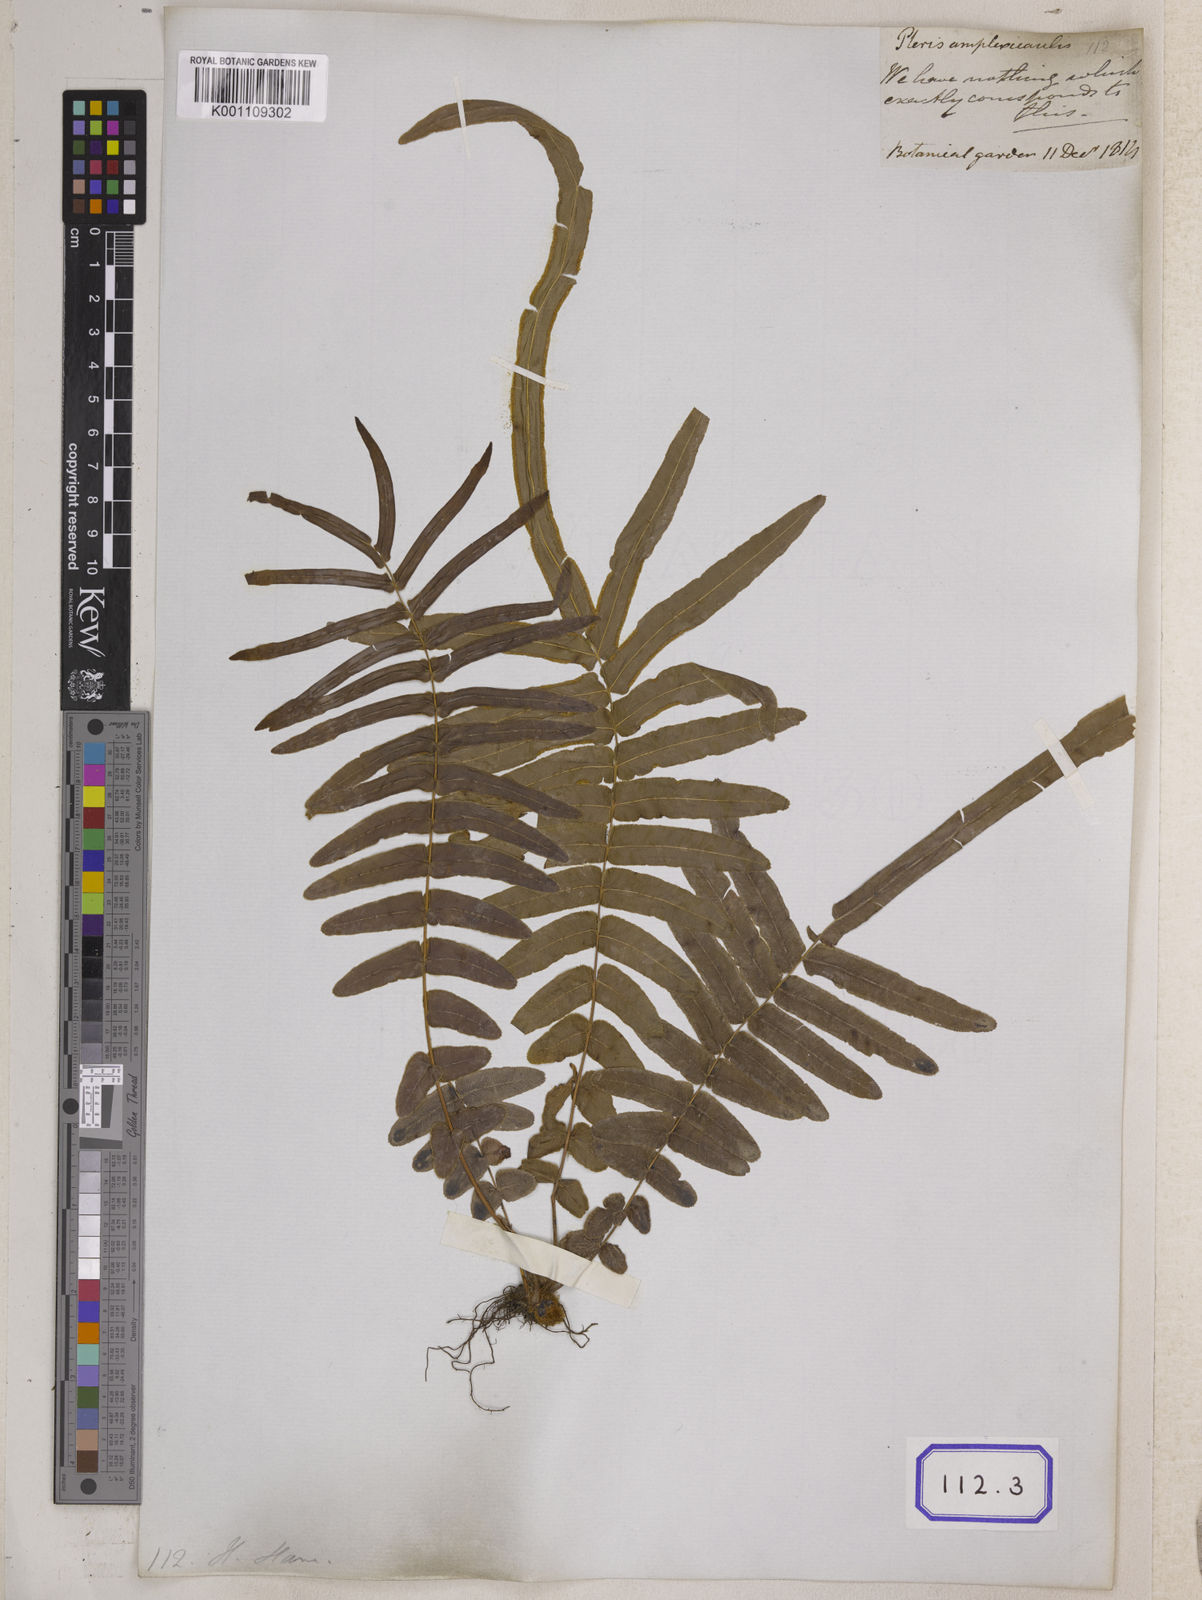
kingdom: Plantae
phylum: Tracheophyta
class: Polypodiopsida
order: Polypodiales
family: Pteridaceae
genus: Pteris
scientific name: Pteris vittata
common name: Ladder brake
